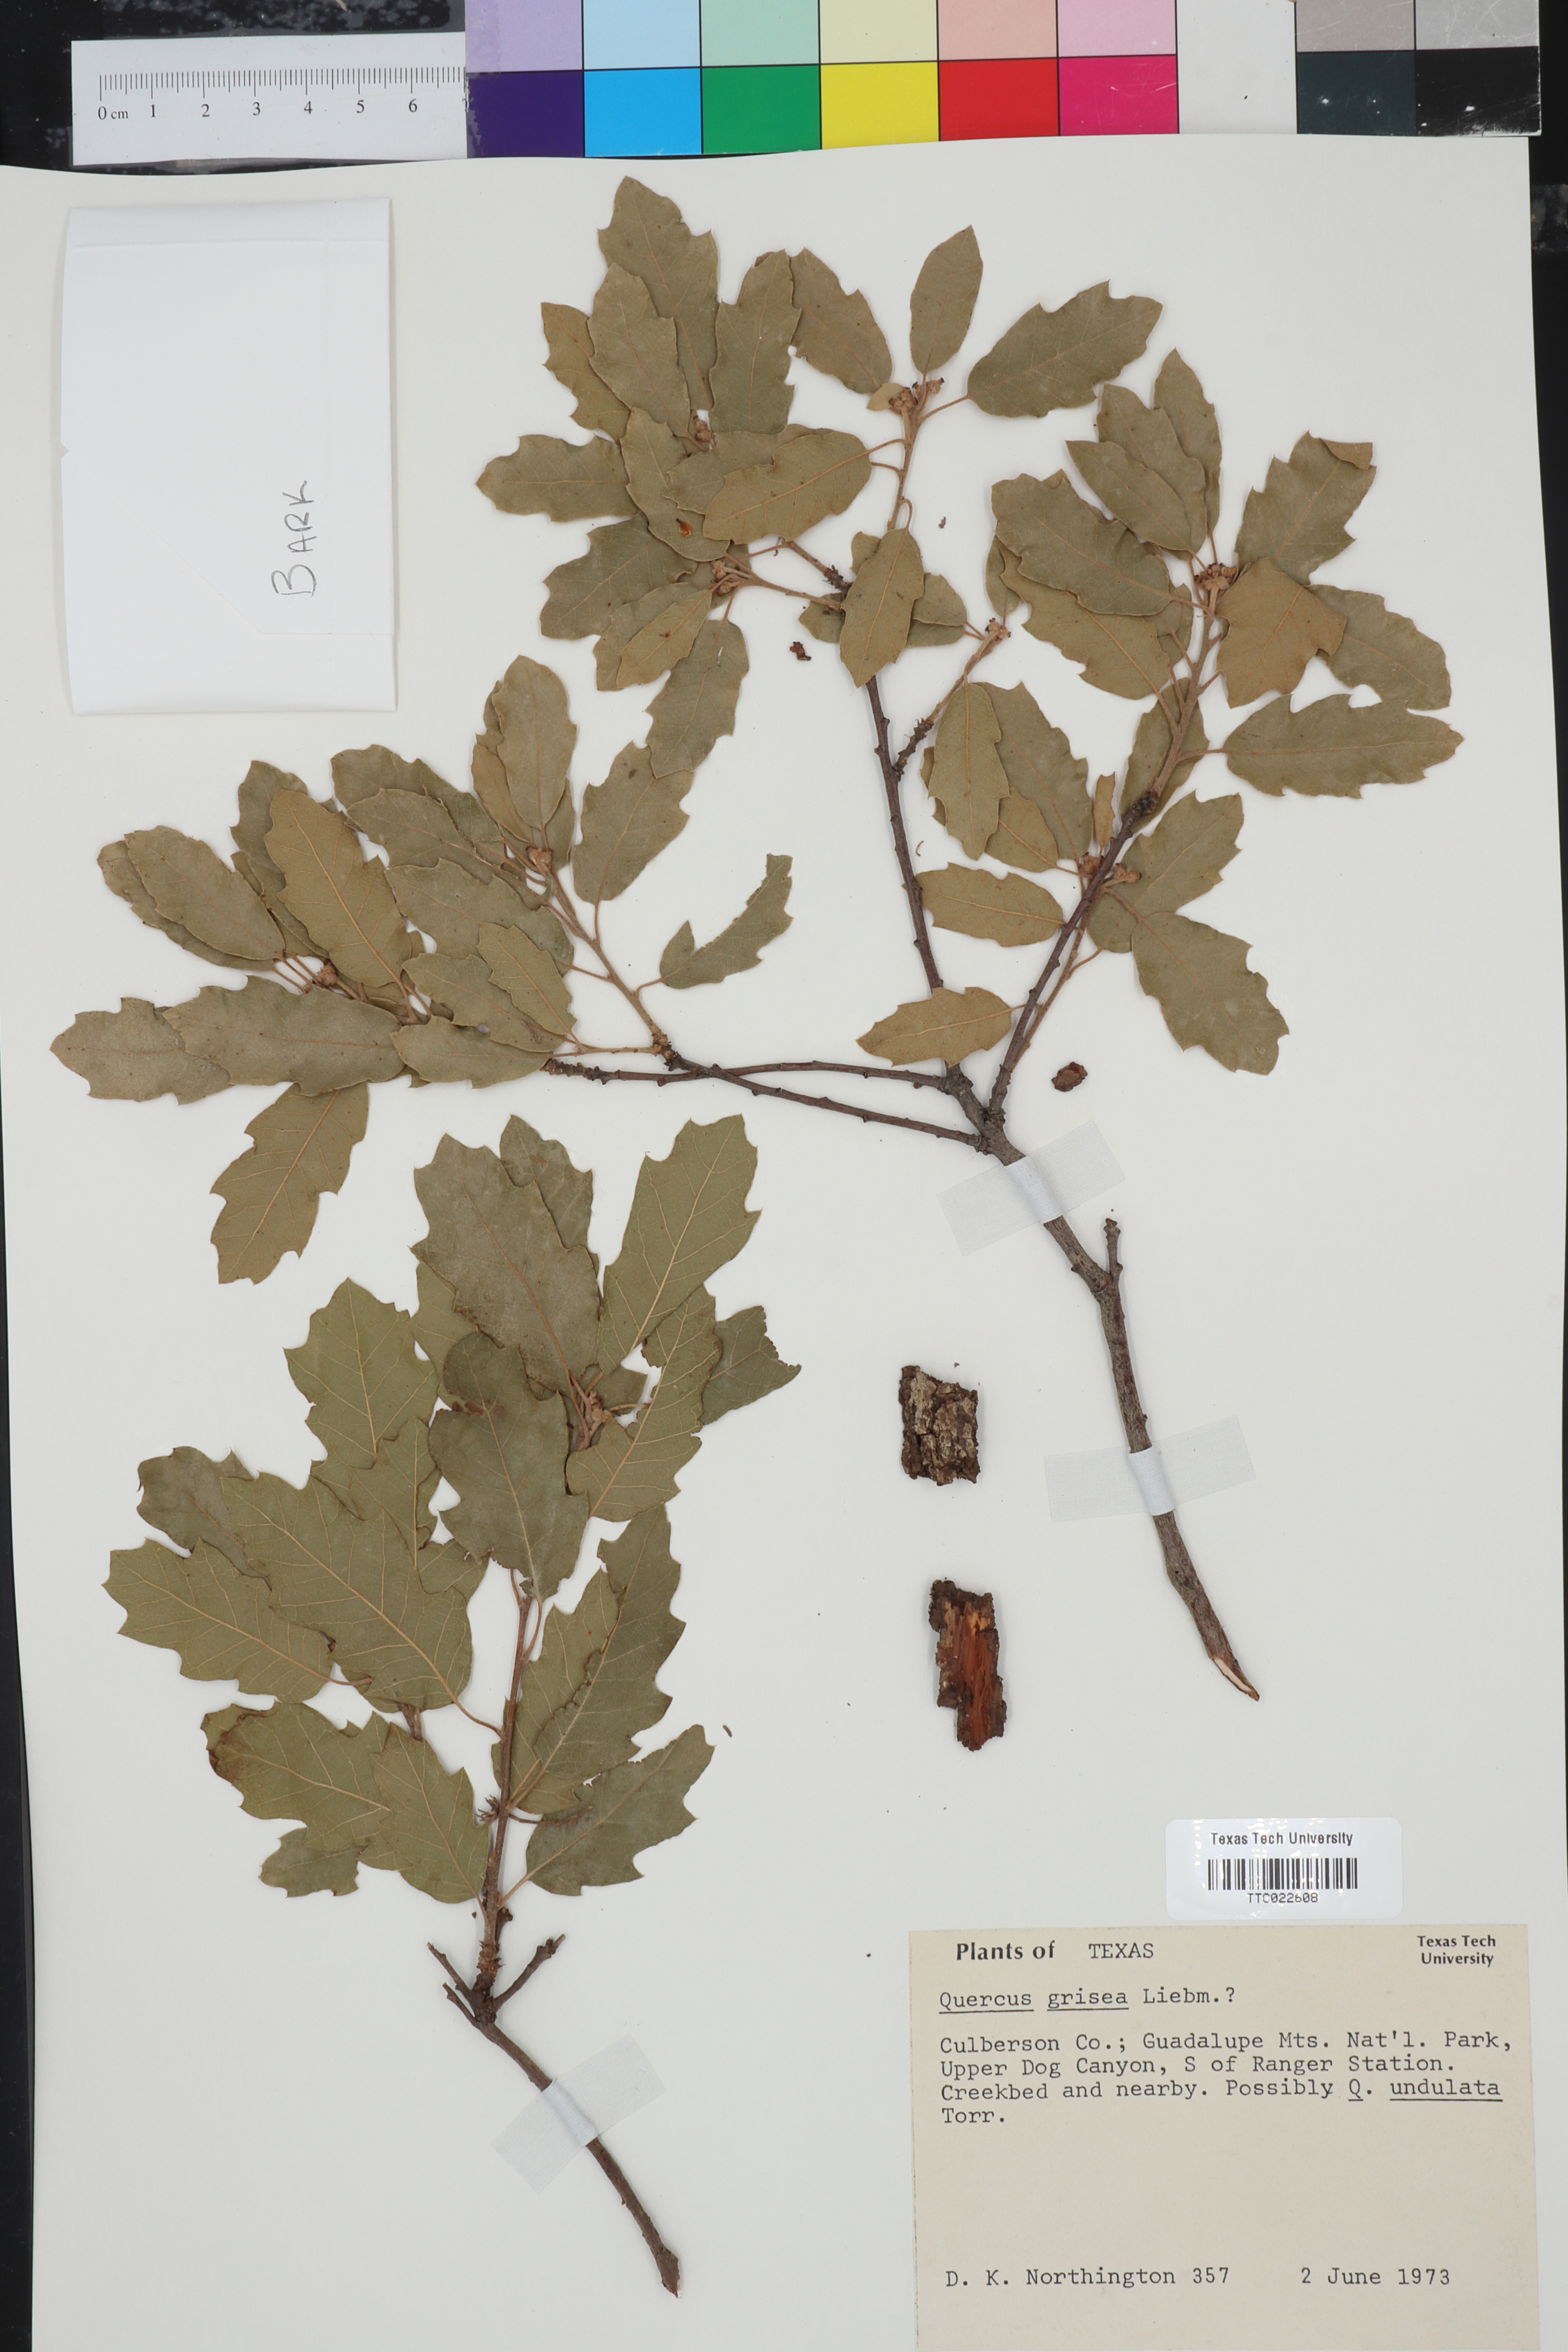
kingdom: Plantae
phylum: Tracheophyta
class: Magnoliopsida
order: Fagales
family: Fagaceae
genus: Quercus
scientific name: Quercus grisea
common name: Gray oak
